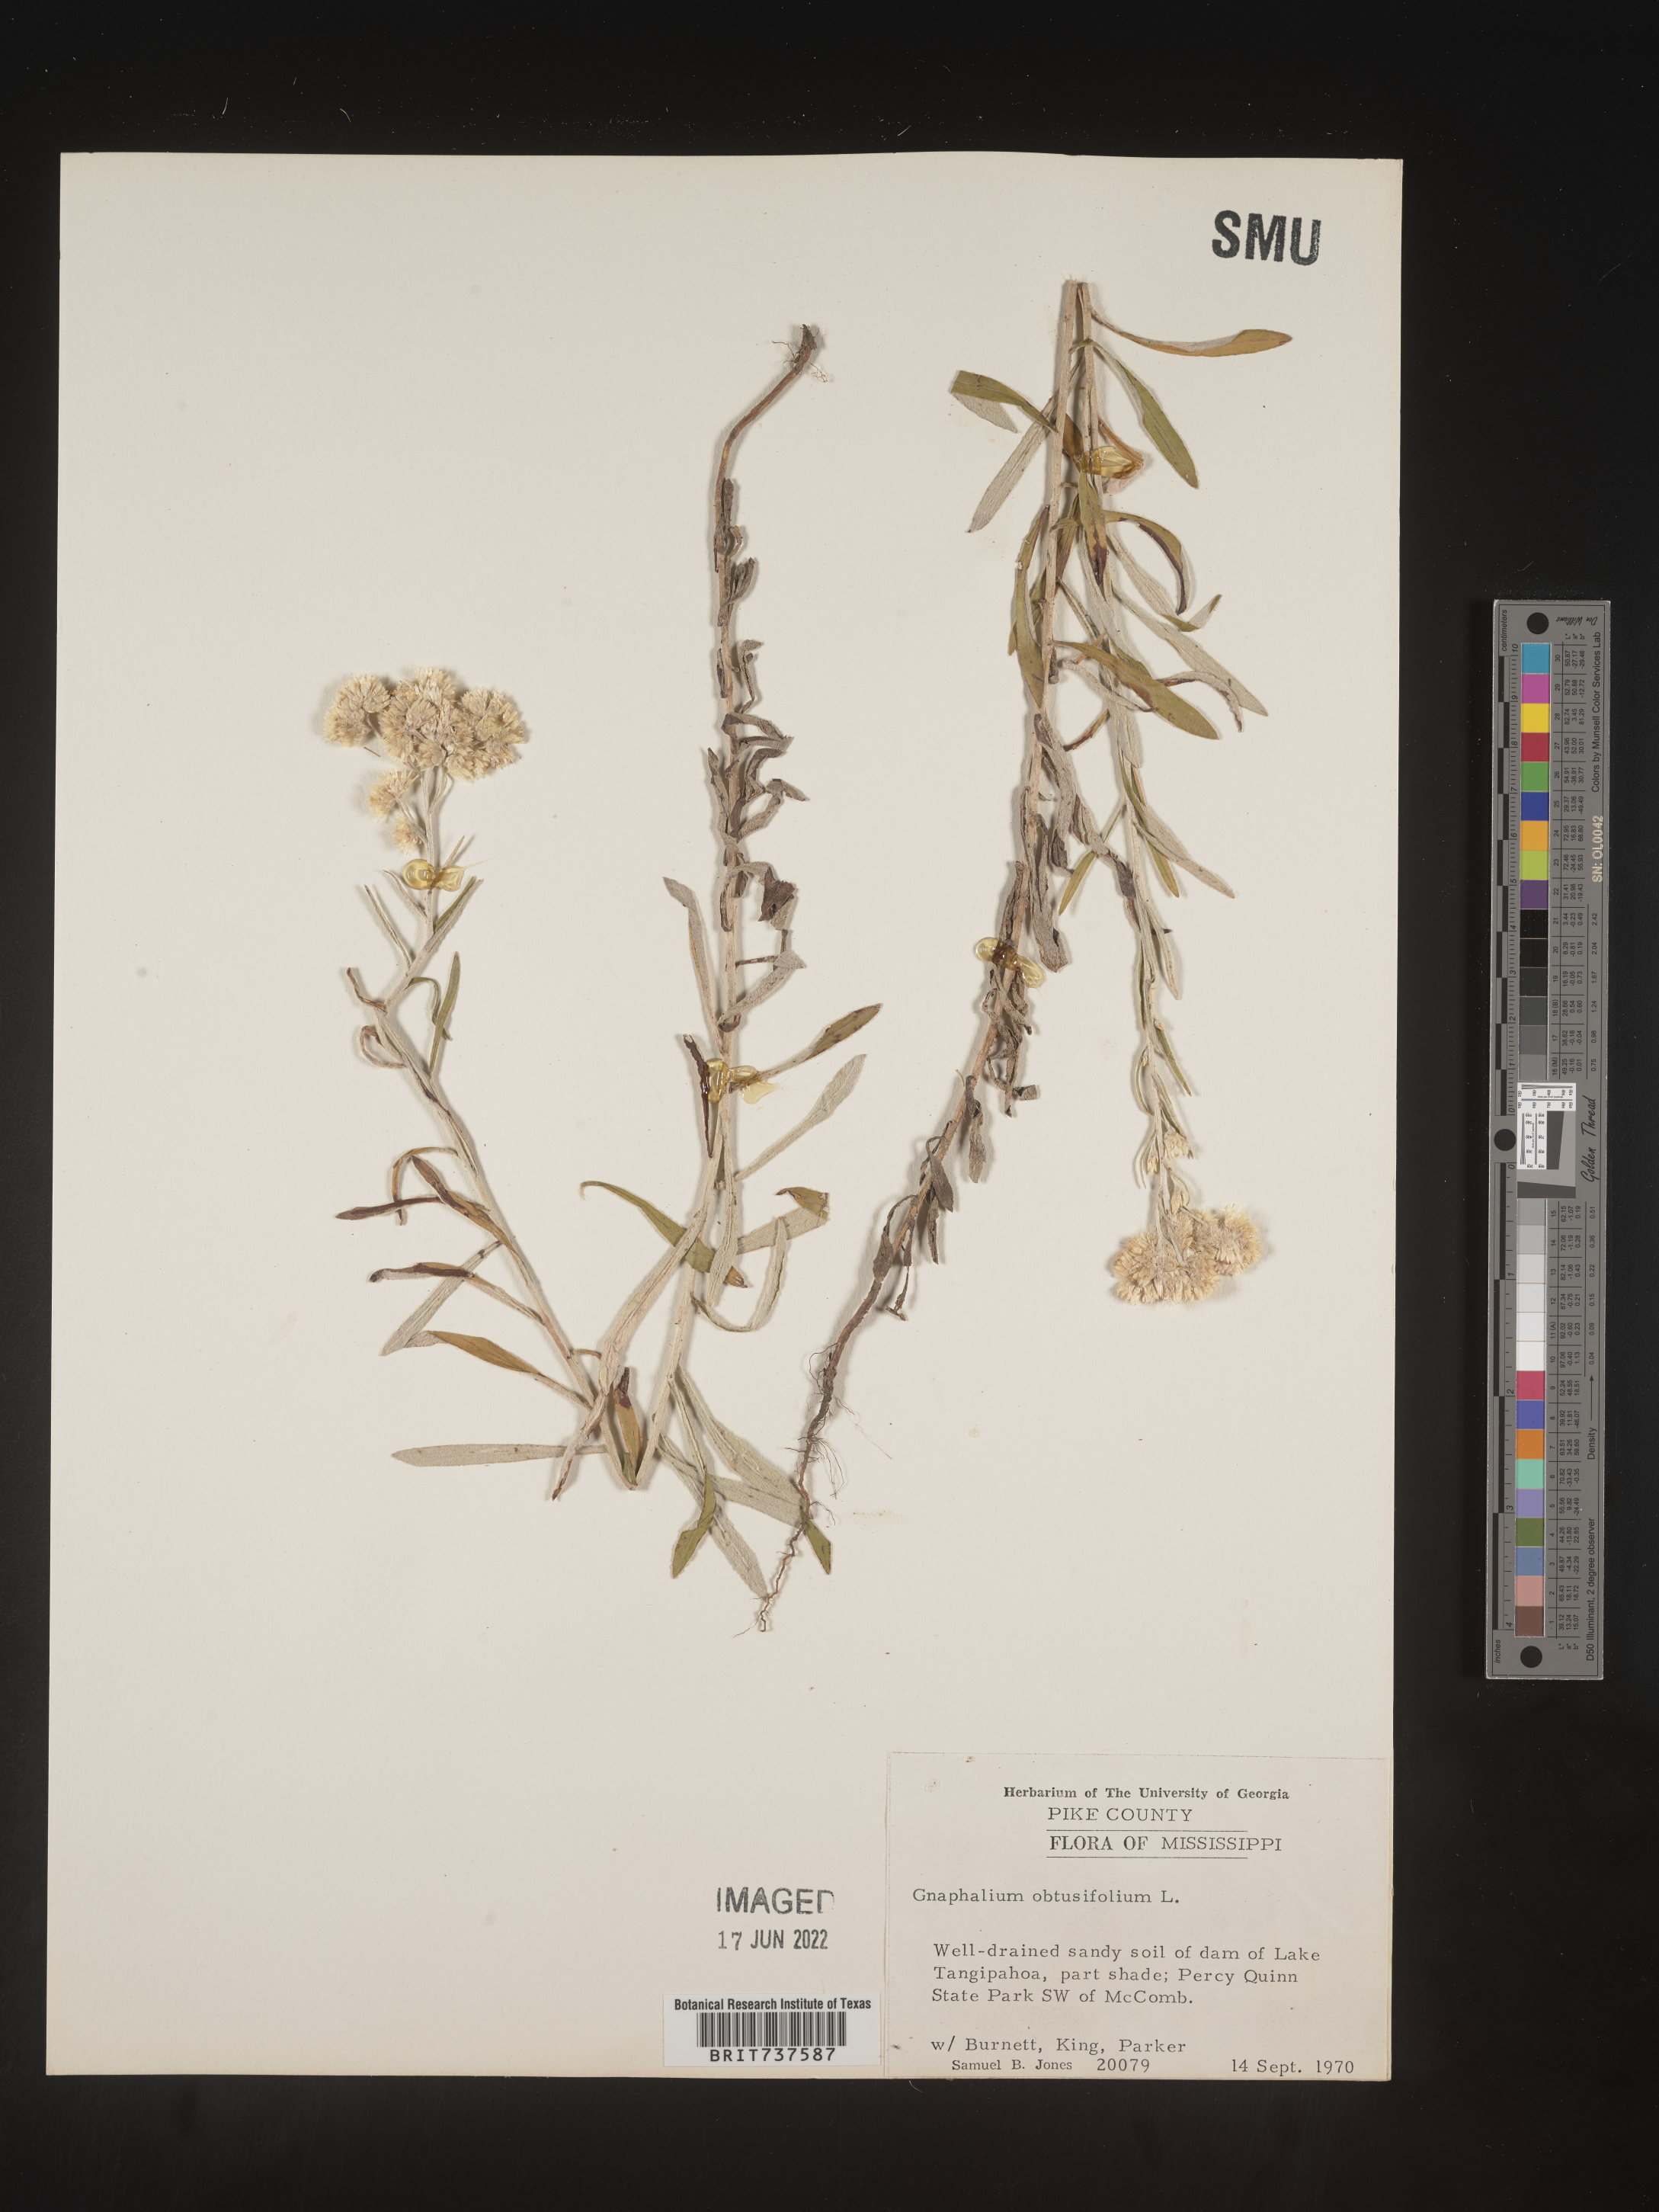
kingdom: Plantae
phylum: Tracheophyta
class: Magnoliopsida
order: Asterales
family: Asteraceae
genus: Pseudognaphalium
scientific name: Pseudognaphalium obtusifolium
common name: Eastern rabbit-tobacco
